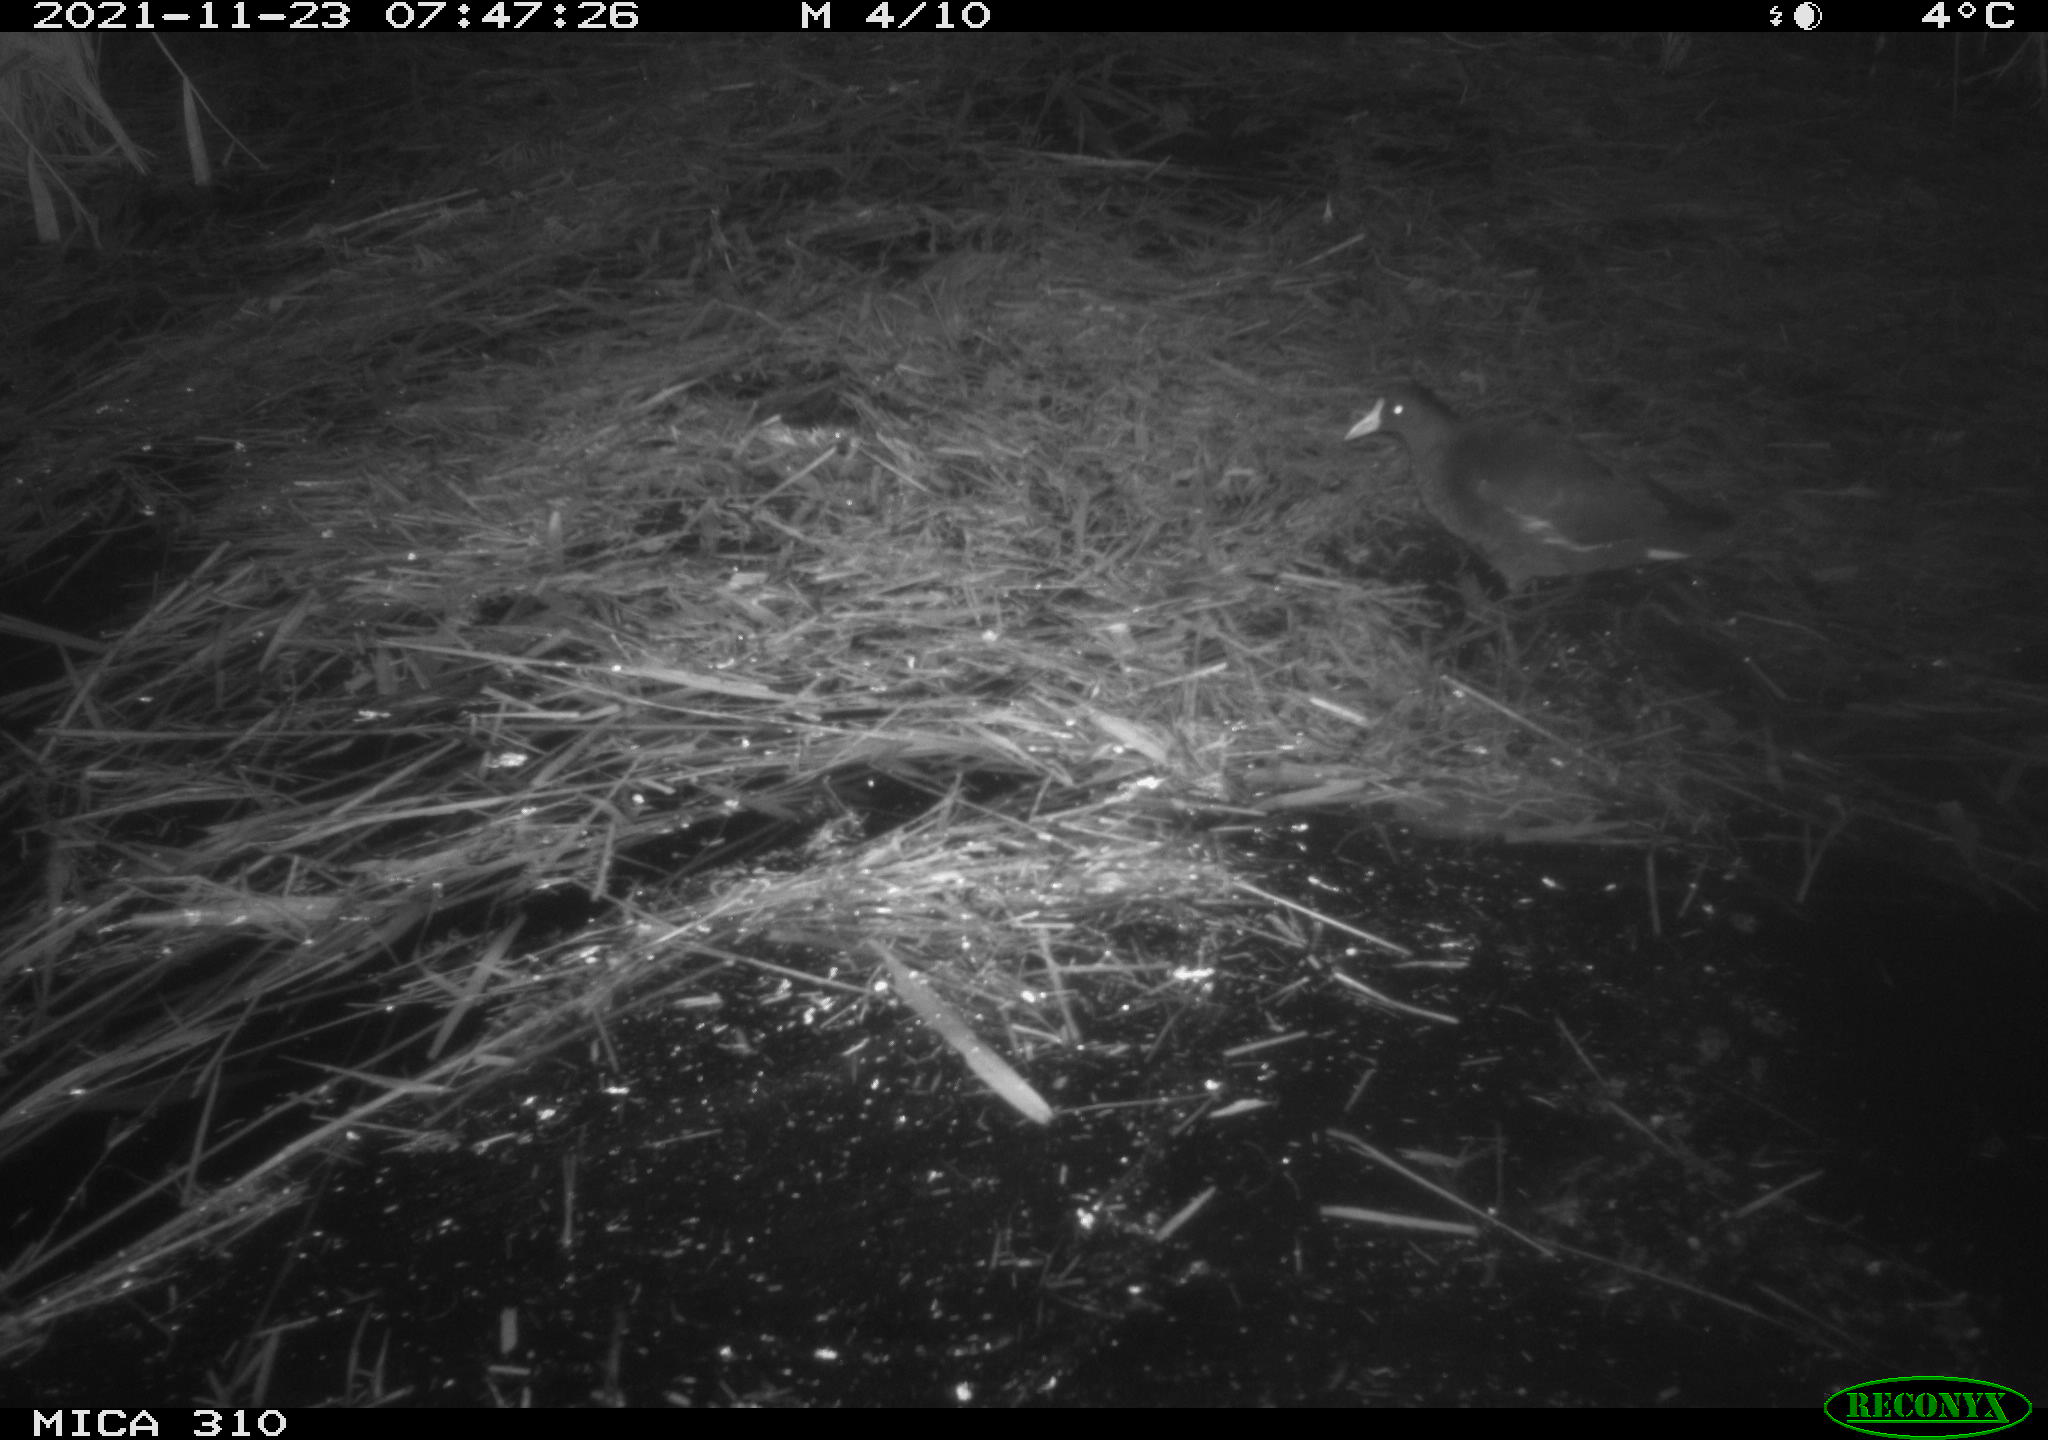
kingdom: Animalia
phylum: Chordata
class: Aves
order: Gruiformes
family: Rallidae
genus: Gallinula
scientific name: Gallinula chloropus
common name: Common moorhen
